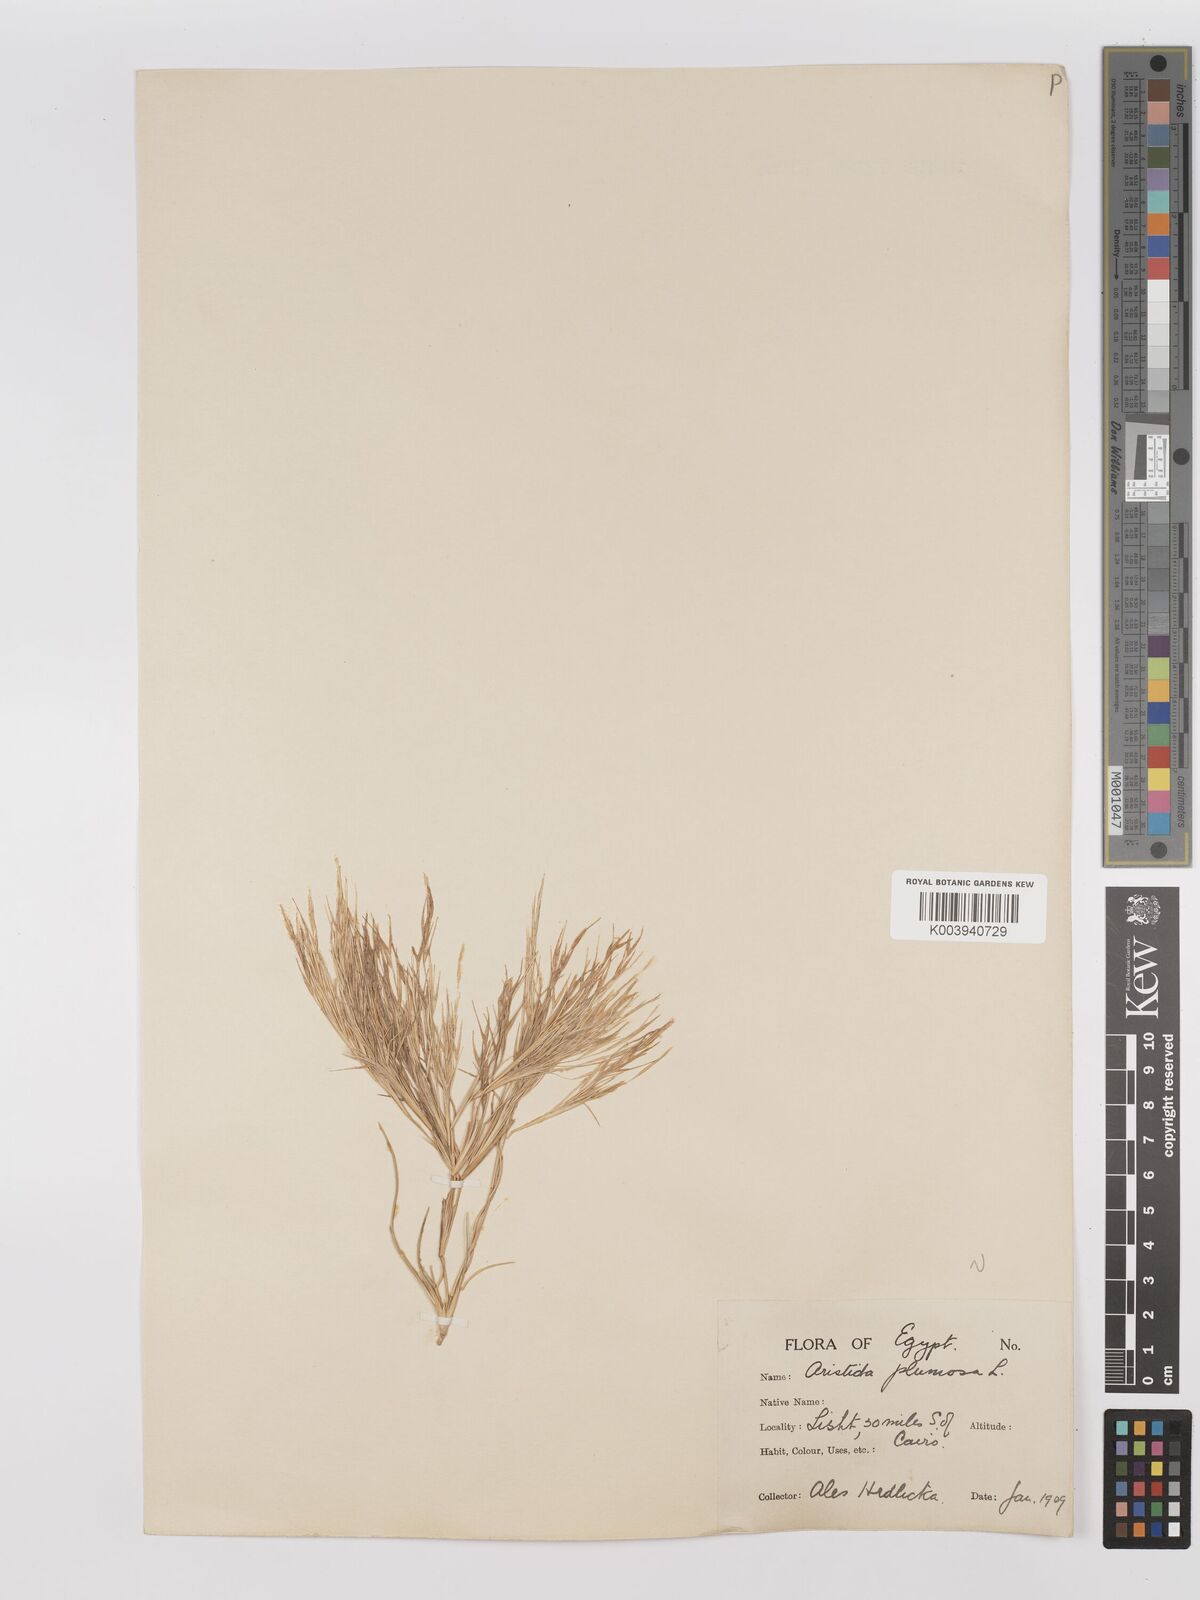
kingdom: Plantae
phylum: Tracheophyta
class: Liliopsida
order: Poales
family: Poaceae
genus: Stipagrostis
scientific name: Stipagrostis plumosa
